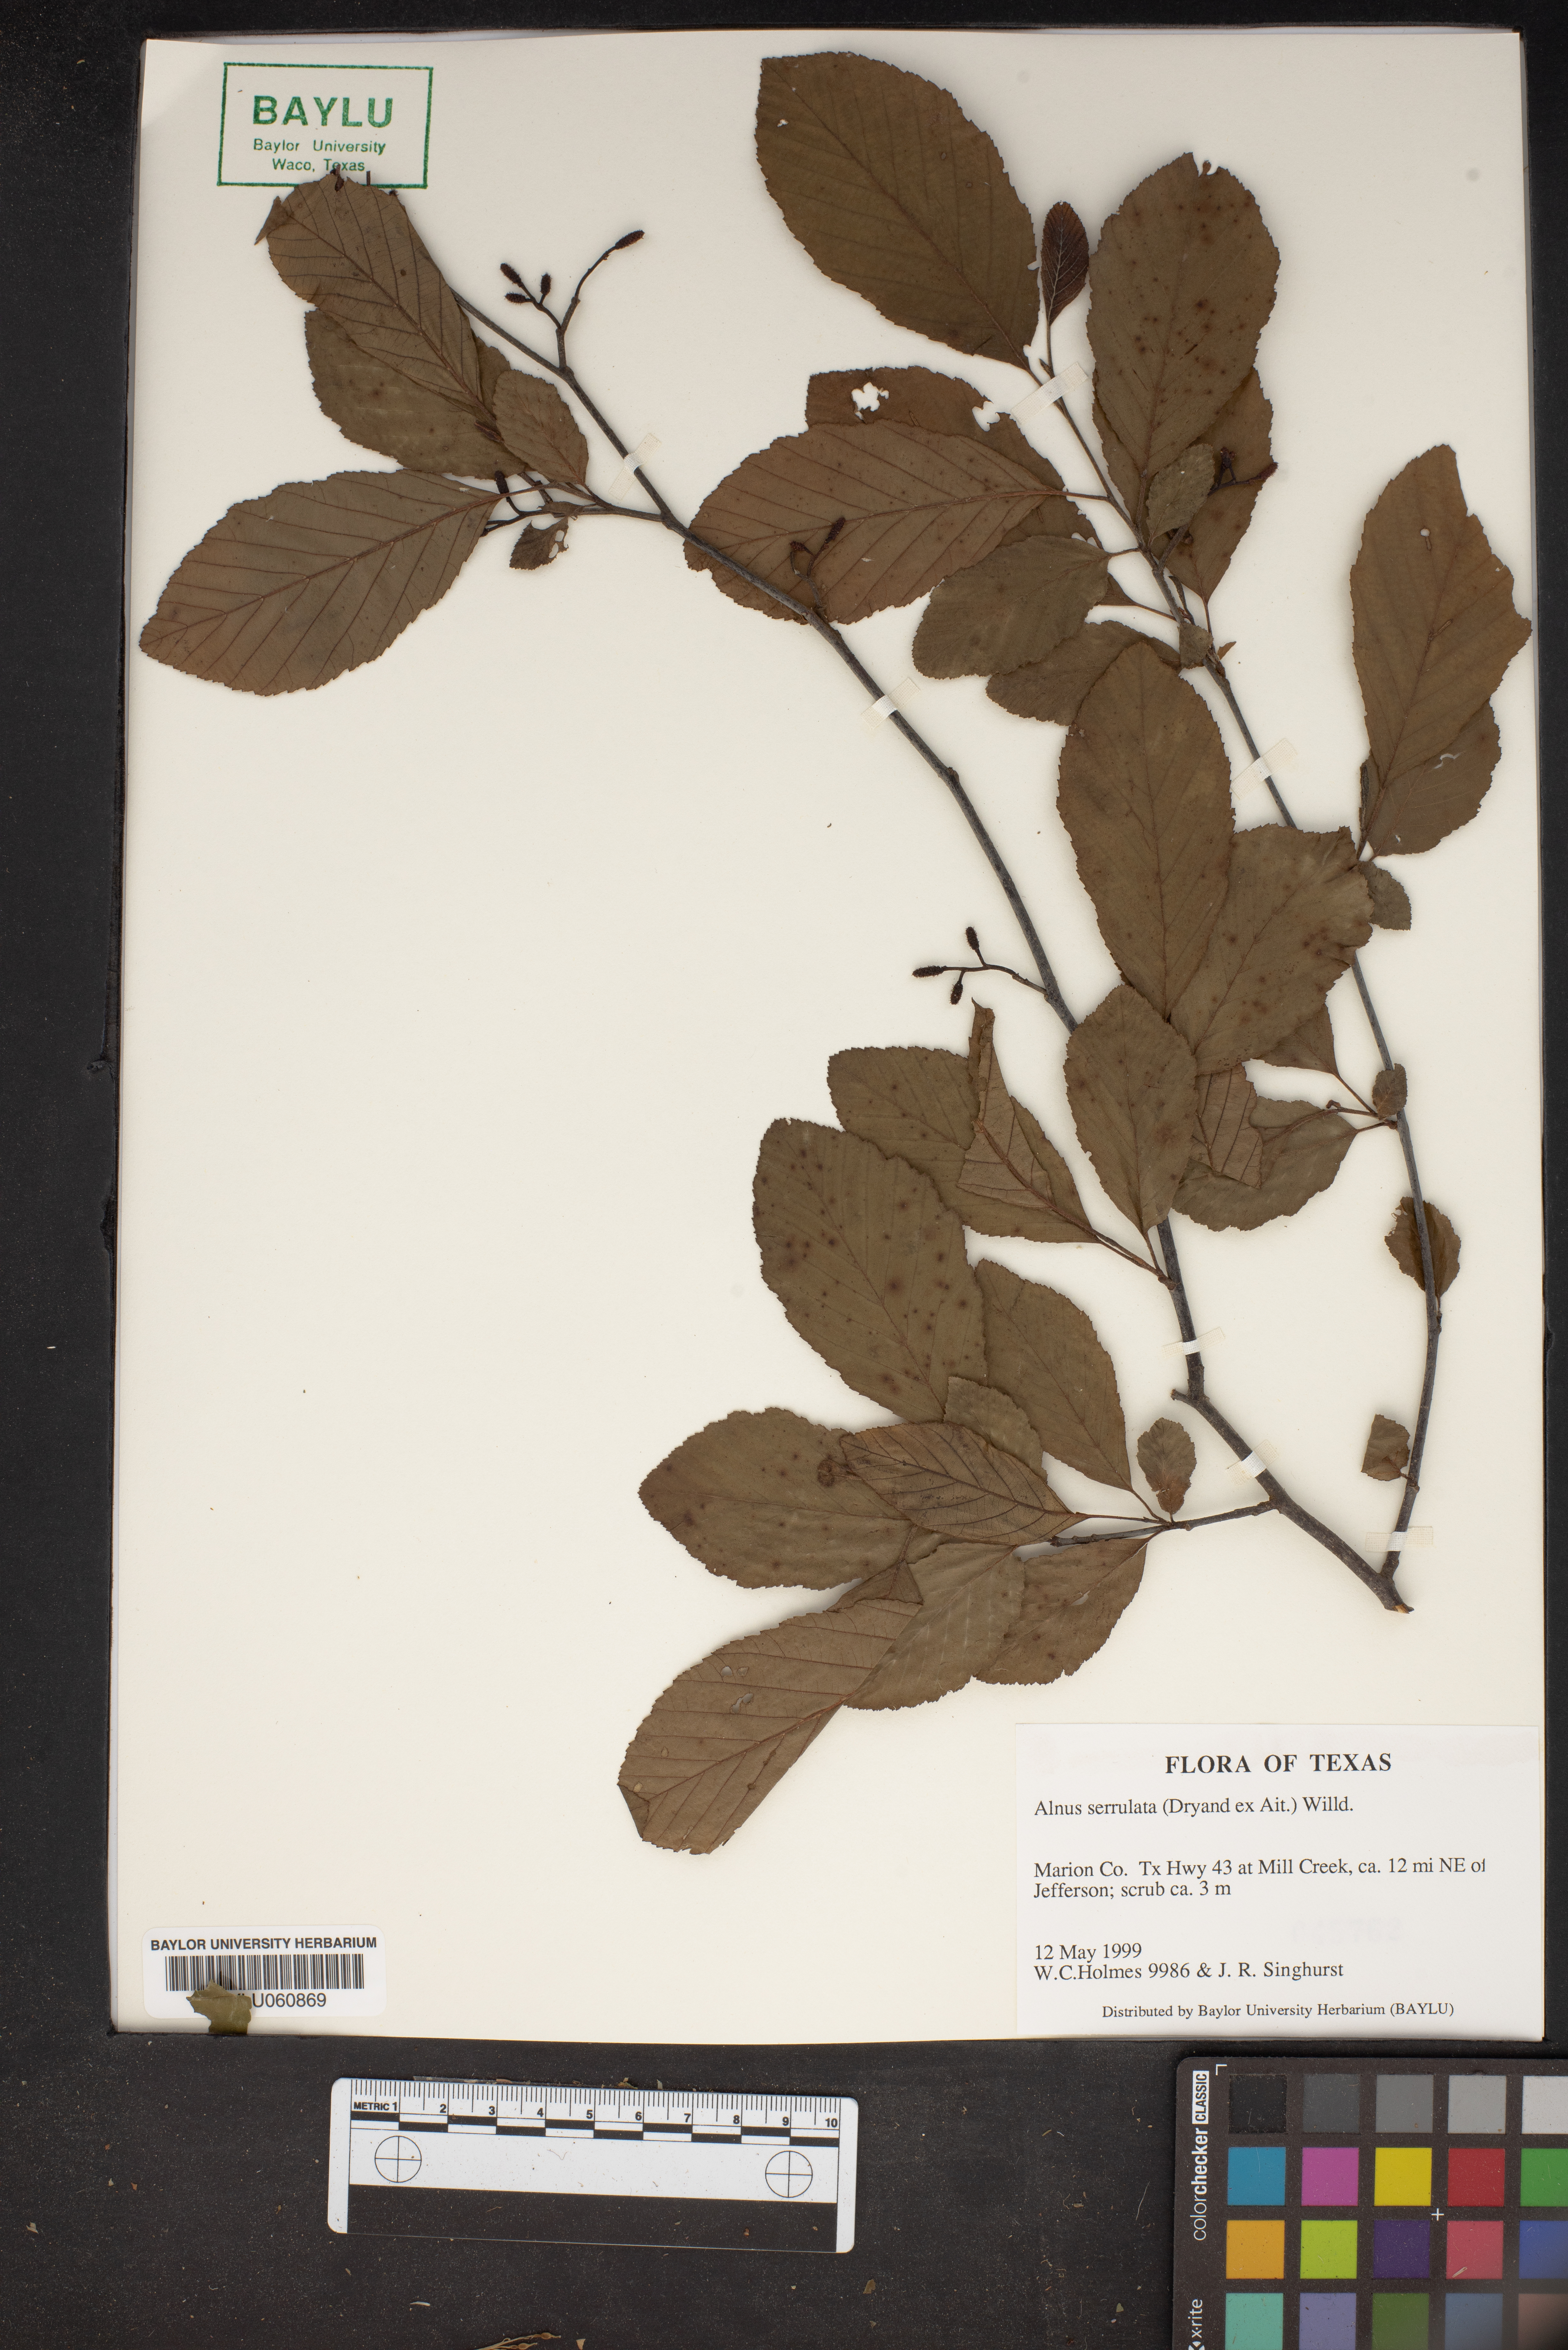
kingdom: Plantae
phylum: Tracheophyta
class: Magnoliopsida
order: Fagales
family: Betulaceae
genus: Alnus
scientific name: Alnus serrulata
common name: Hazel alder
